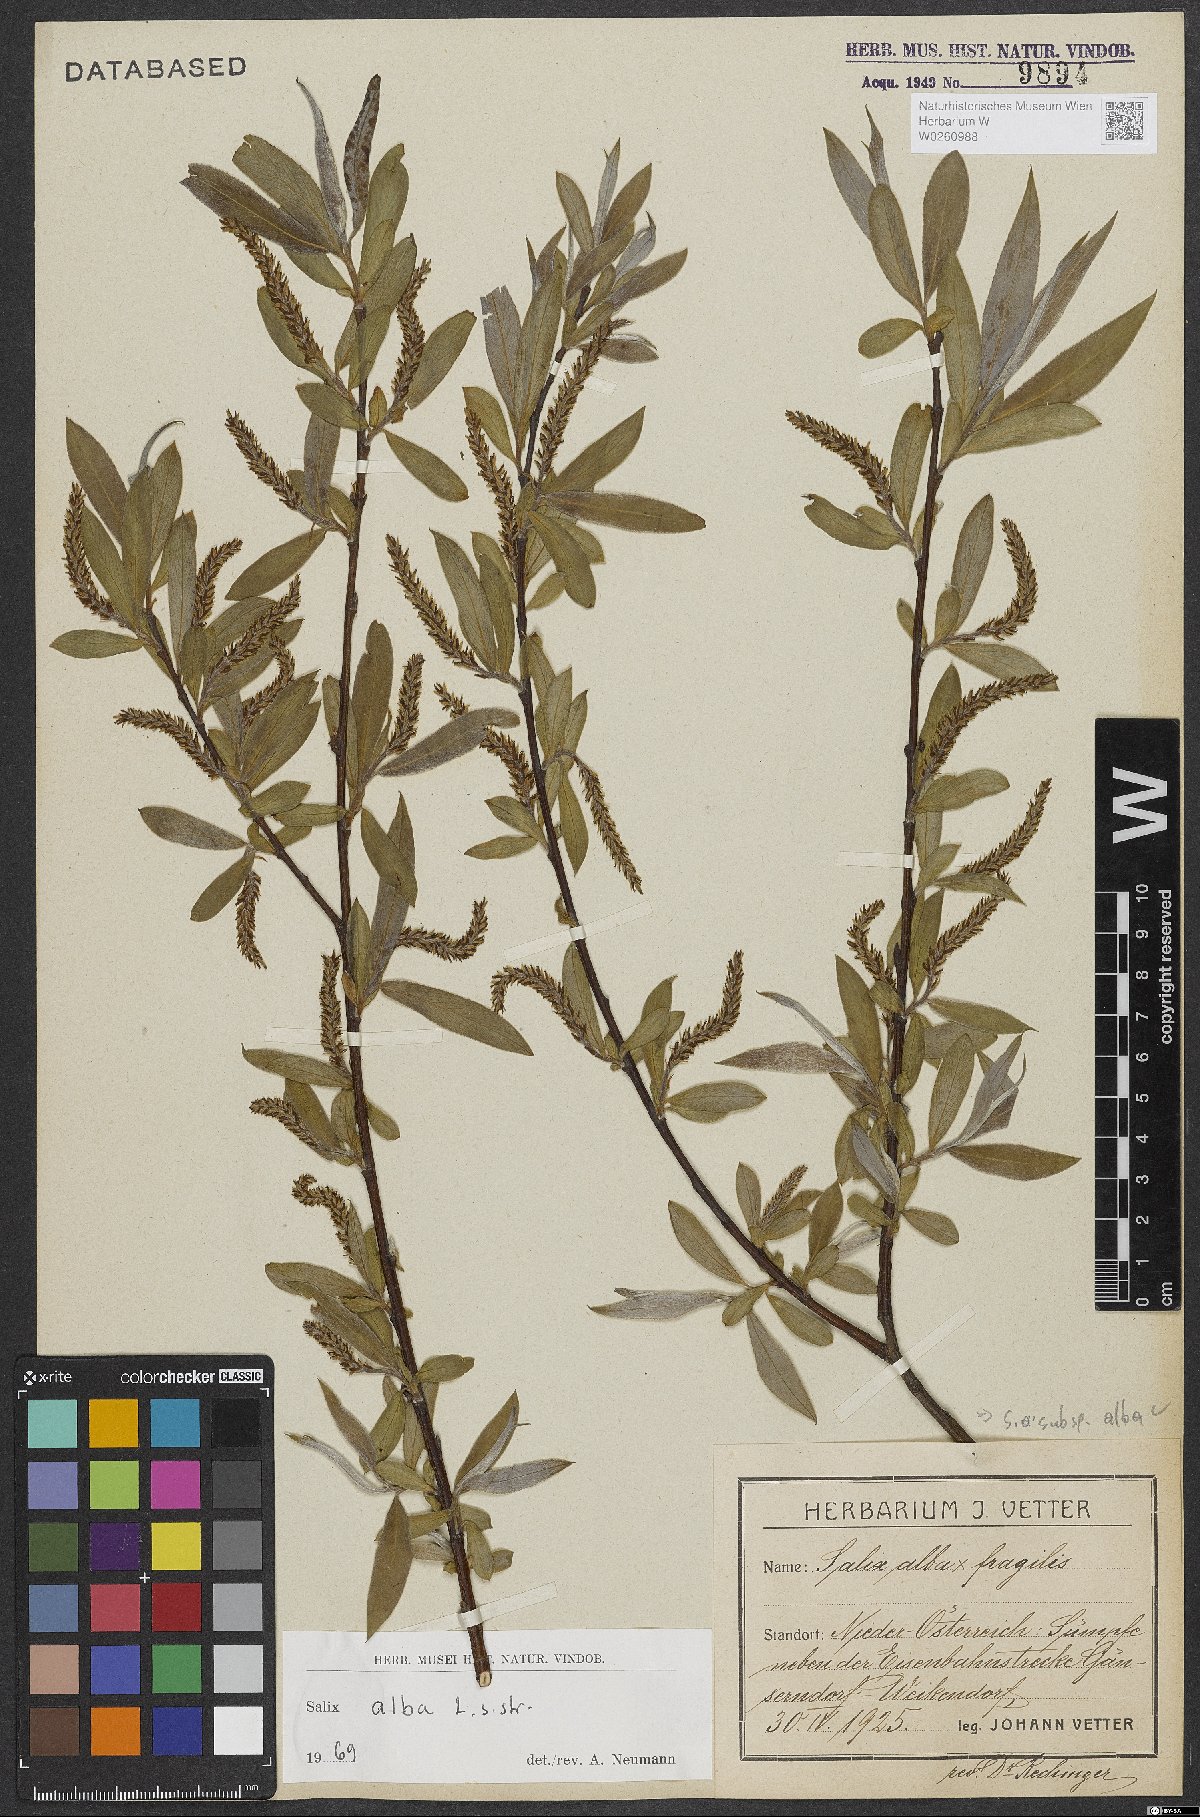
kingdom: Plantae
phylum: Tracheophyta
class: Magnoliopsida
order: Malpighiales
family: Salicaceae
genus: Salix
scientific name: Salix alba
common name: White willow
